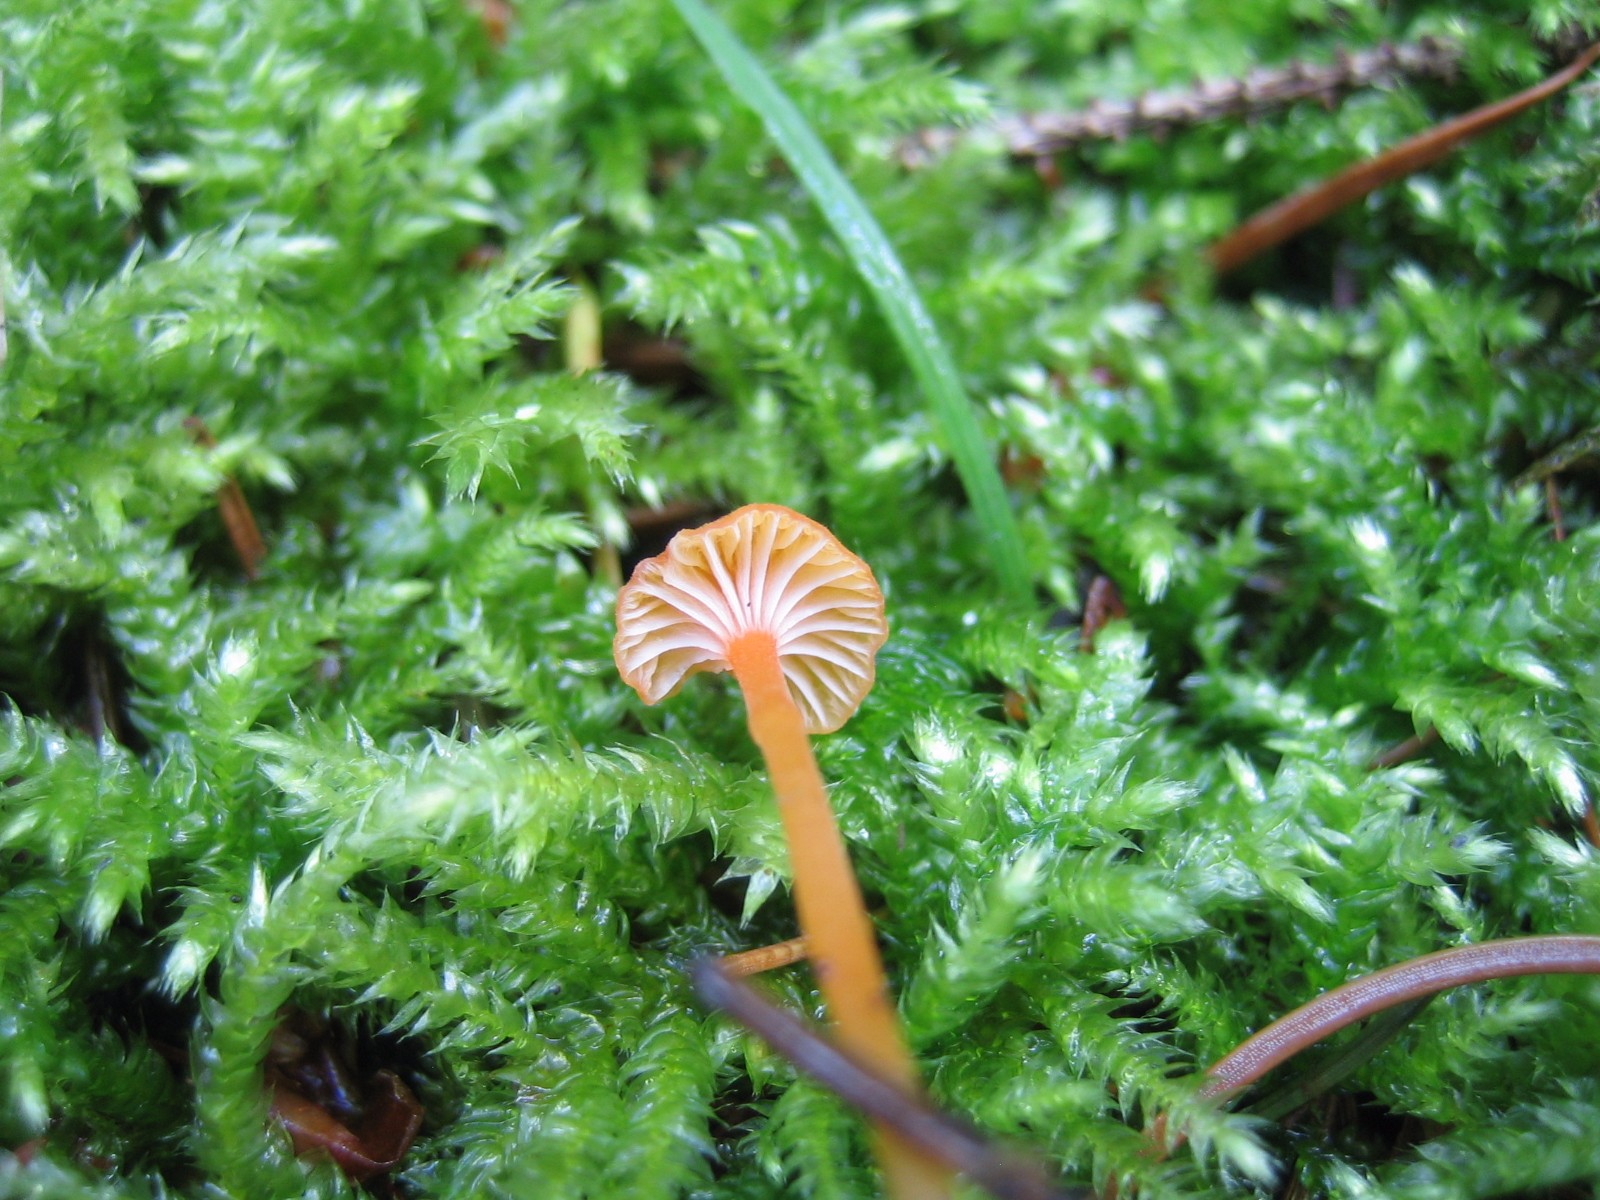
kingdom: Fungi
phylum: Basidiomycota
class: Agaricomycetes
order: Hymenochaetales
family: Rickenellaceae
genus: Rickenella
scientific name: Rickenella fibula
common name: orange mosnavlehat
